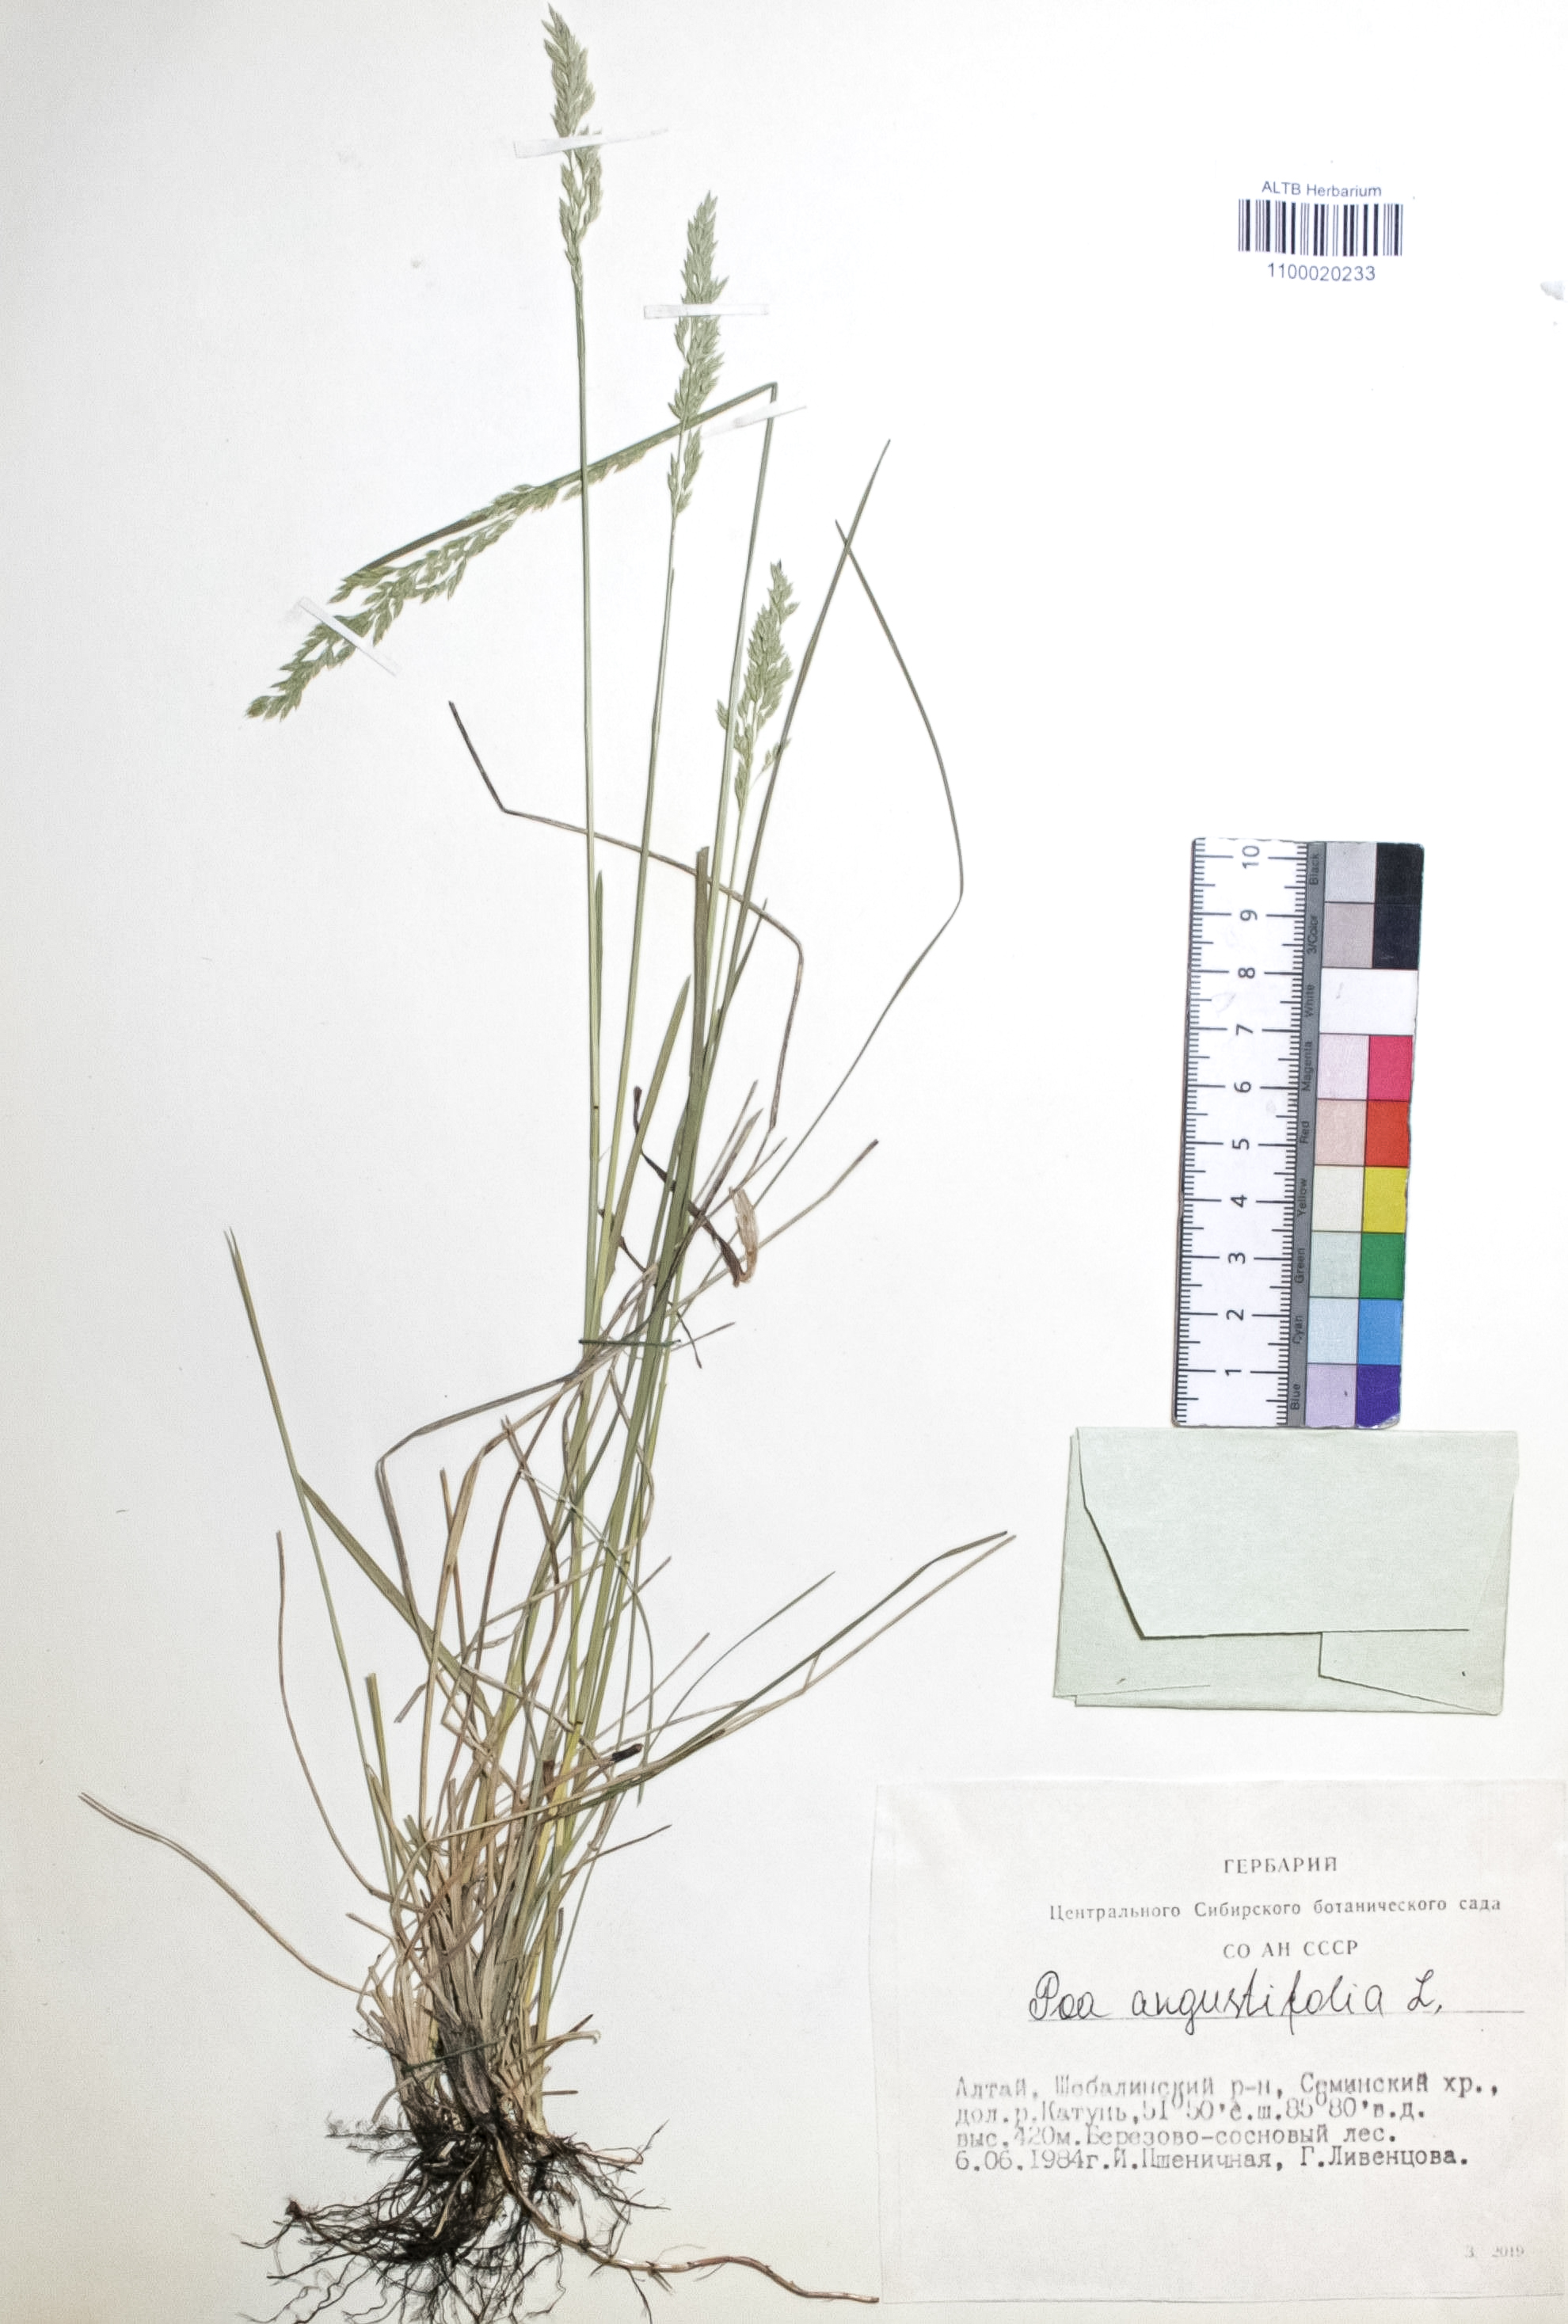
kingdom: Plantae
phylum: Tracheophyta
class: Liliopsida
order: Poales
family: Poaceae
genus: Poa
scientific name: Poa angustifolia
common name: Narrow-leaved meadow-grass
